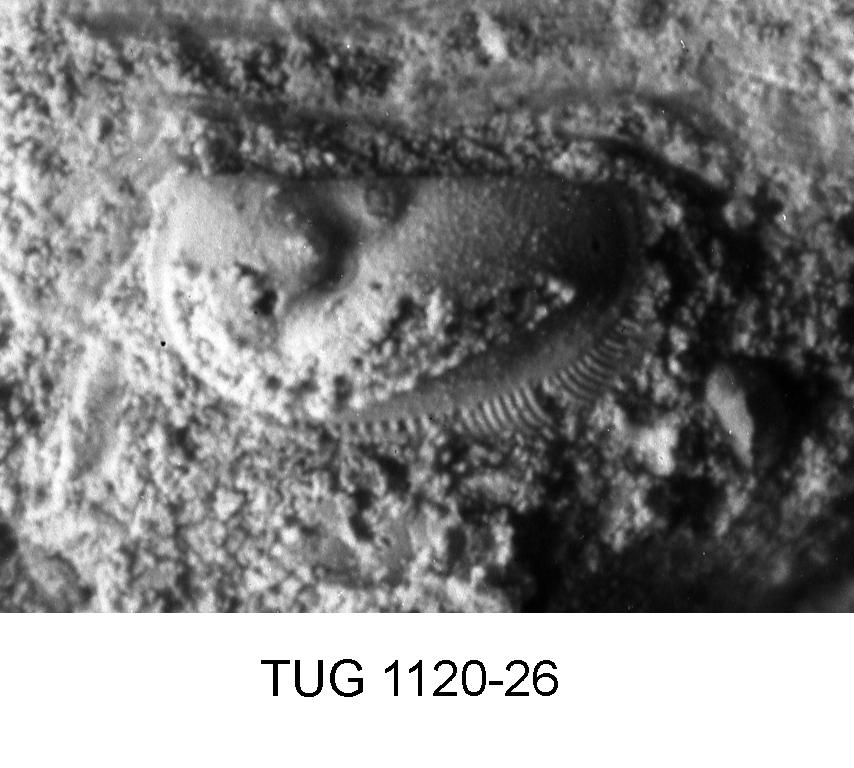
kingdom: Animalia
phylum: Arthropoda
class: Ostracoda
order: Palaeocopida
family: Tetradellidae
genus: Ctenobolbina
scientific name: Ctenobolbina
